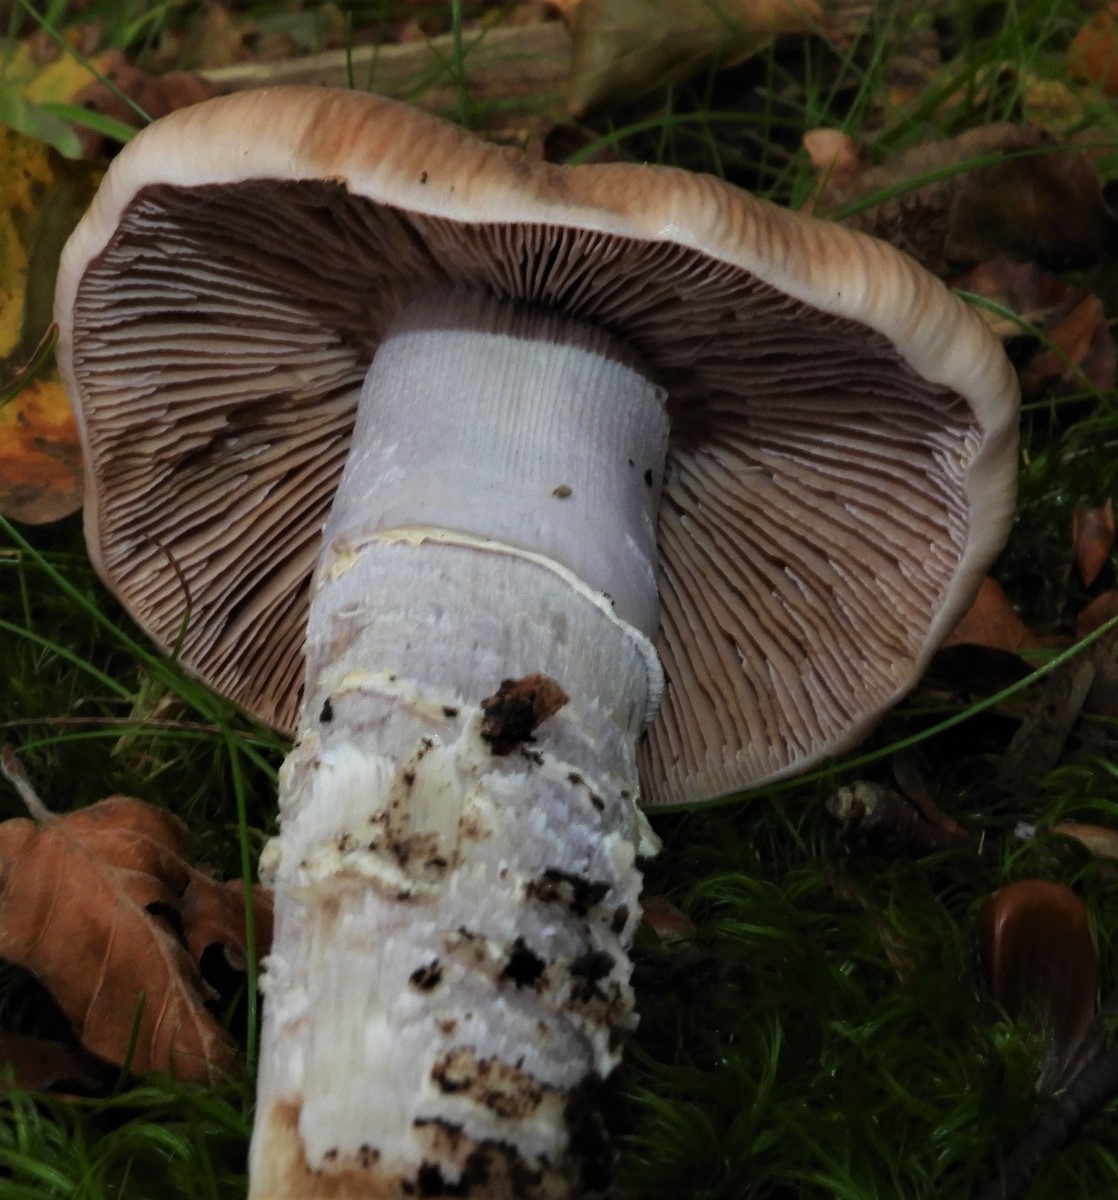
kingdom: Fungi
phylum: Basidiomycota
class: Agaricomycetes
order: Agaricales
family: Cortinariaceae
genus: Cortinarius
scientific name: Cortinarius elatior
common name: høj slørhat
